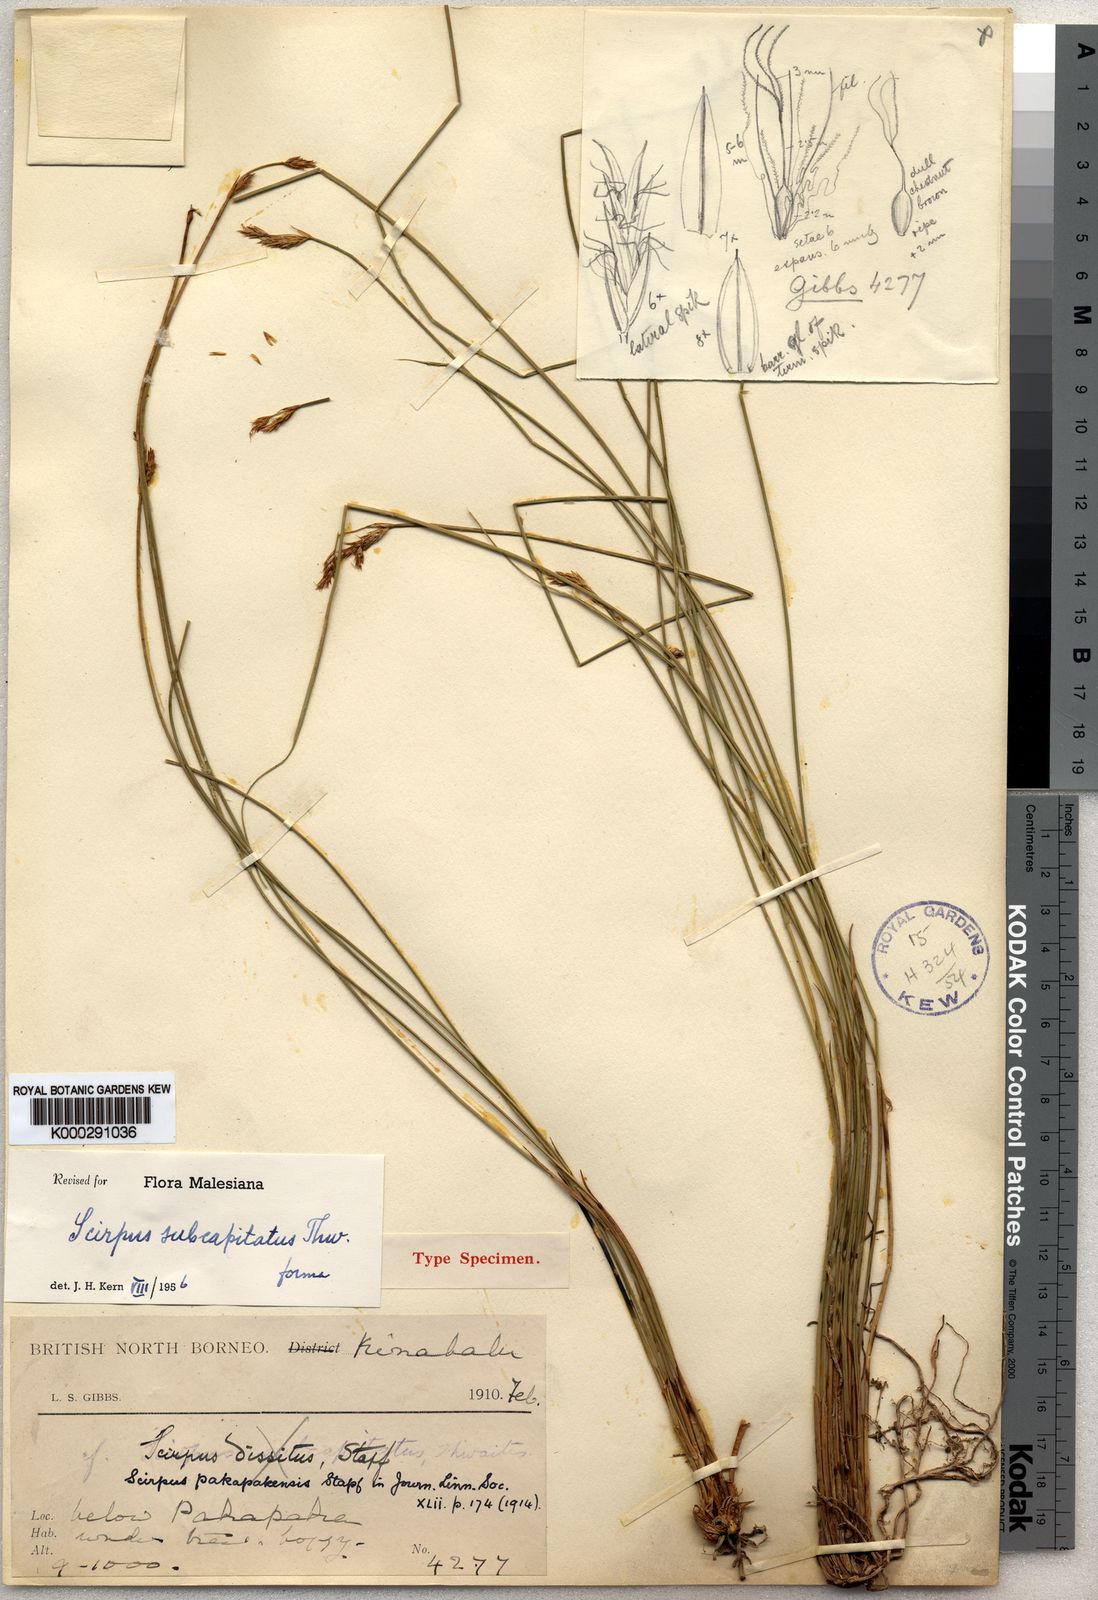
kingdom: Plantae
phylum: Tracheophyta
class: Liliopsida
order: Poales
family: Cyperaceae
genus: Trichophorum
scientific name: Trichophorum subcapitatum
